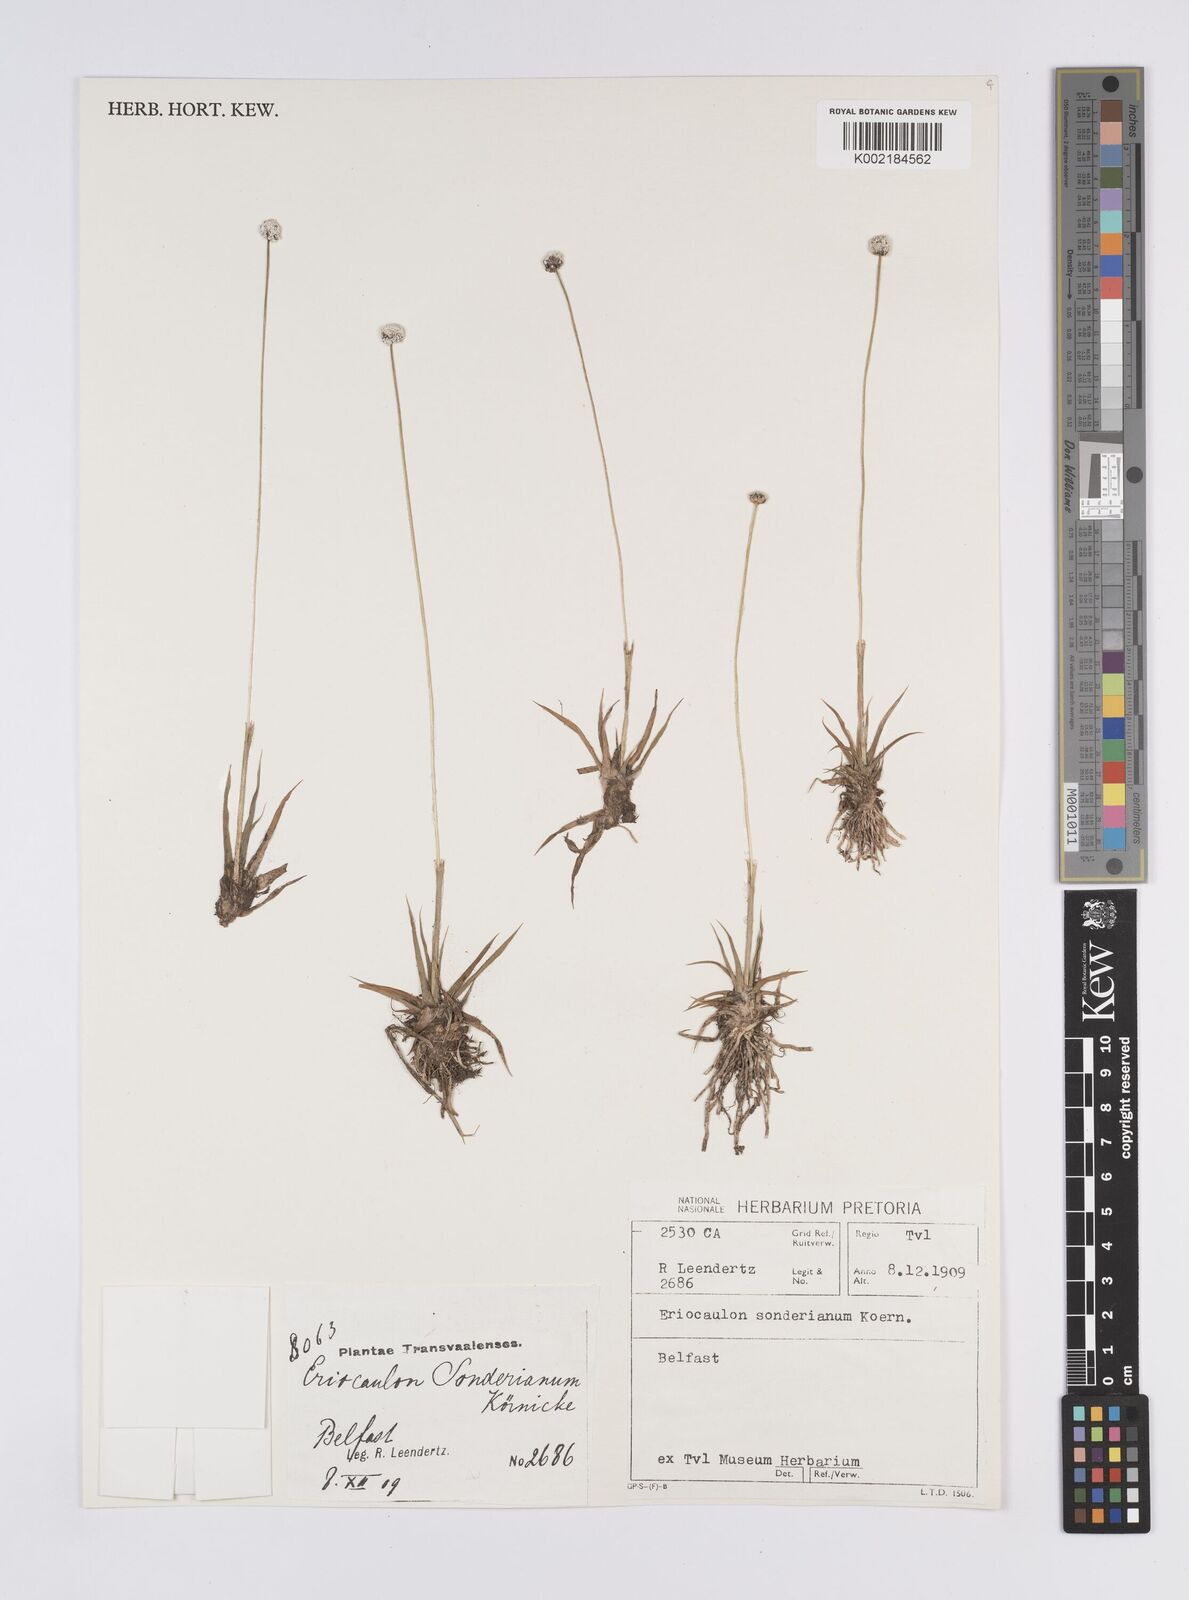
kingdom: Plantae
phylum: Tracheophyta
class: Liliopsida
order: Poales
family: Eriocaulaceae
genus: Eriocaulon
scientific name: Eriocaulon sonderianum
